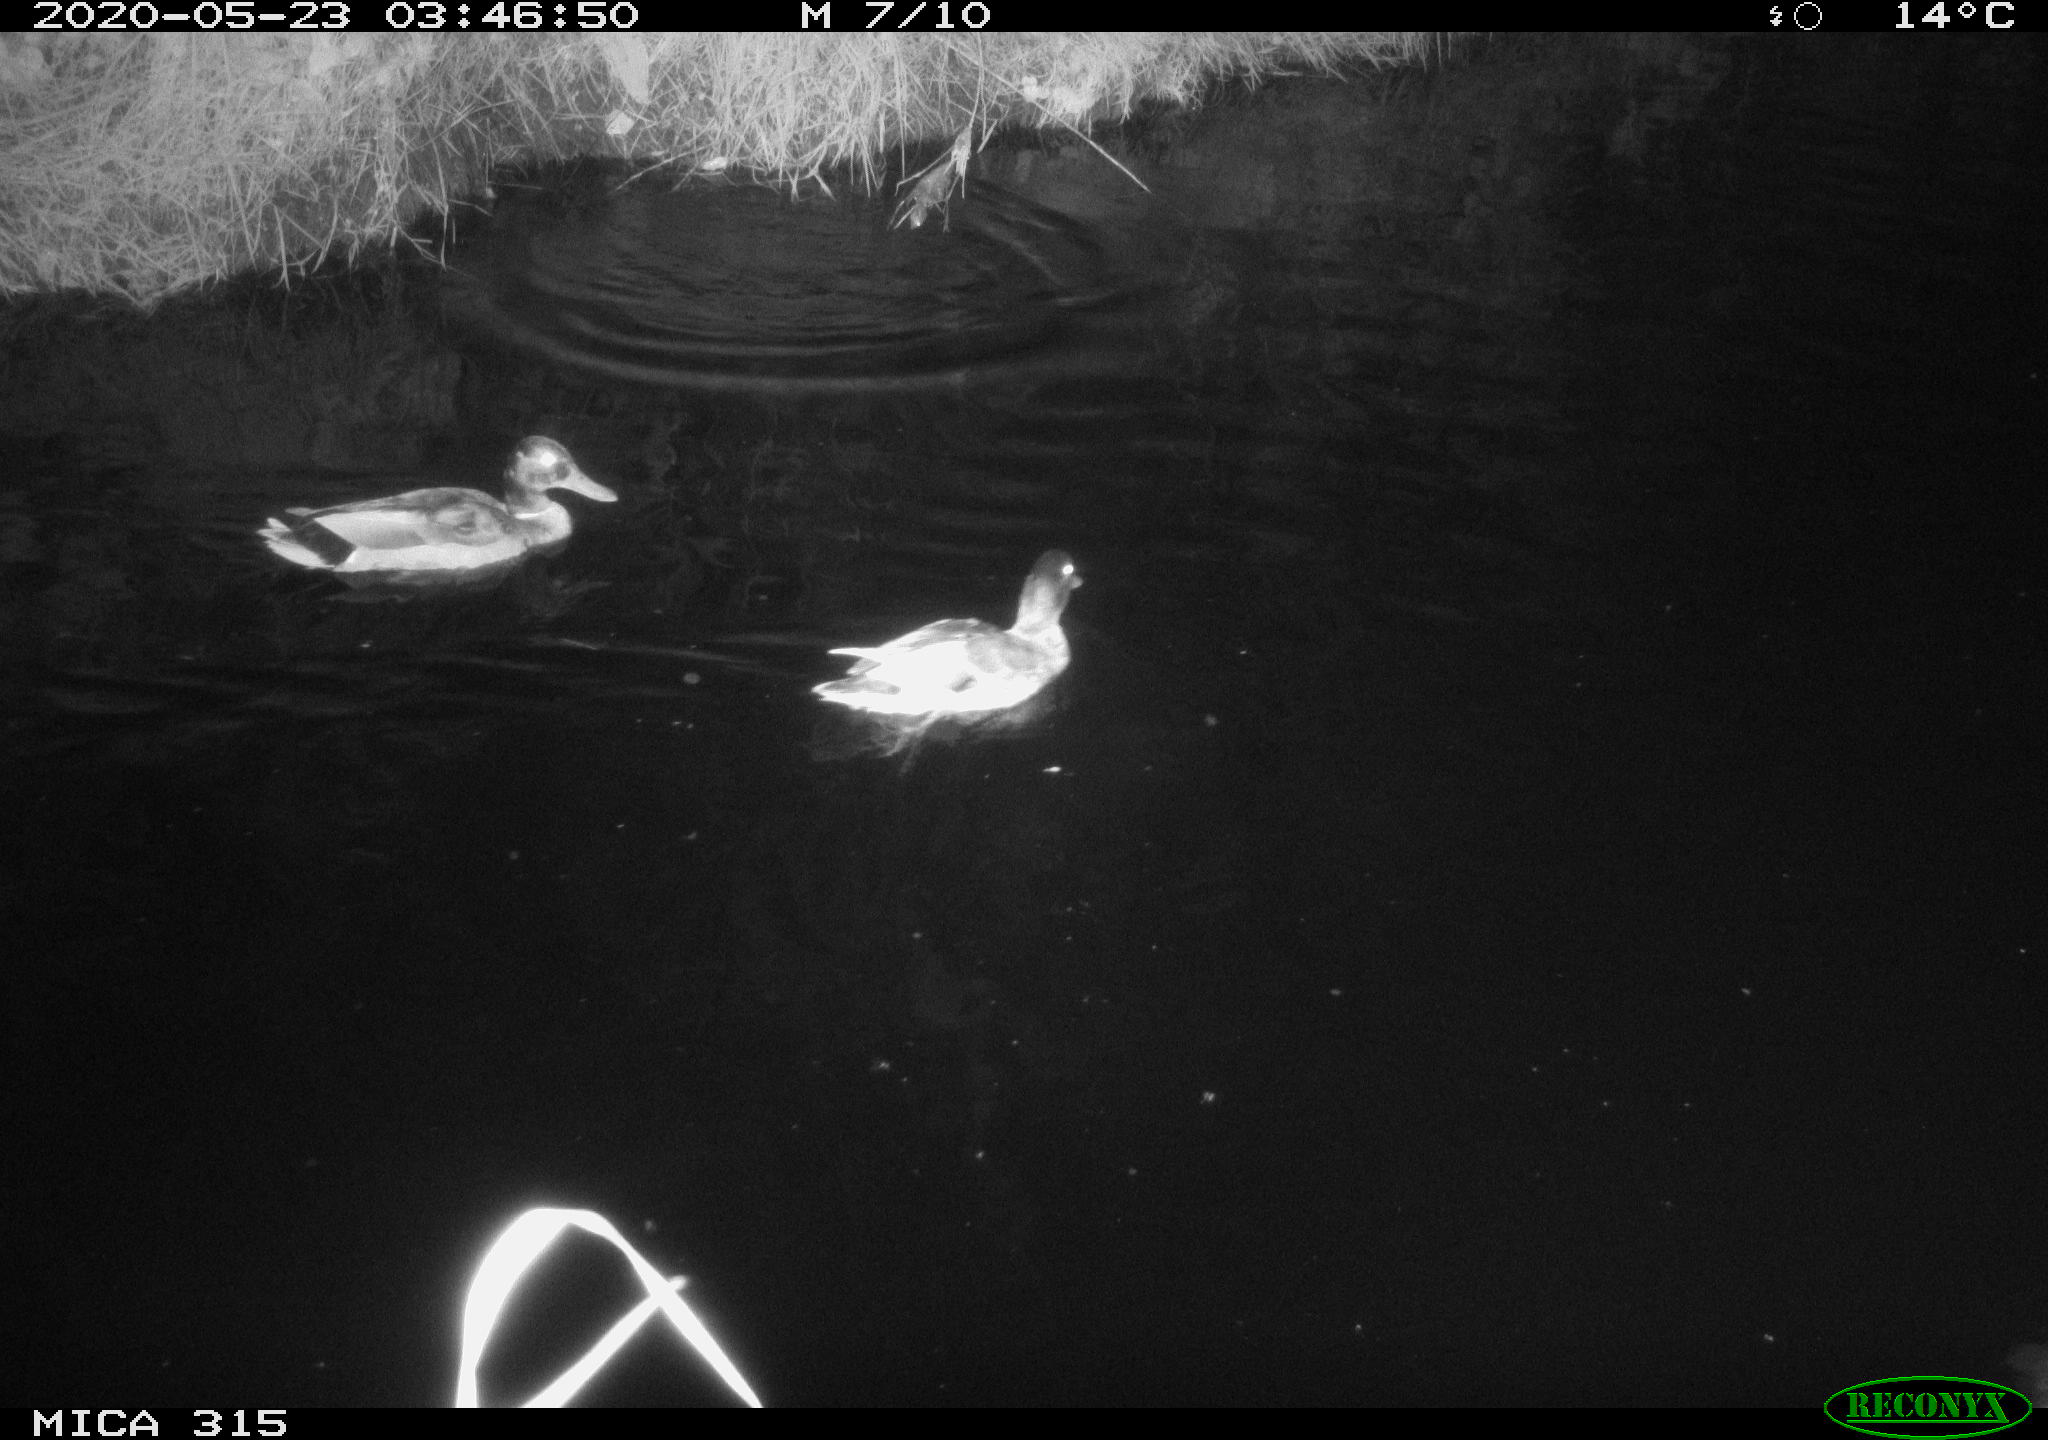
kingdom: Animalia
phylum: Chordata
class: Aves
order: Anseriformes
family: Anatidae
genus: Anas
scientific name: Anas platyrhynchos
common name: Mallard
